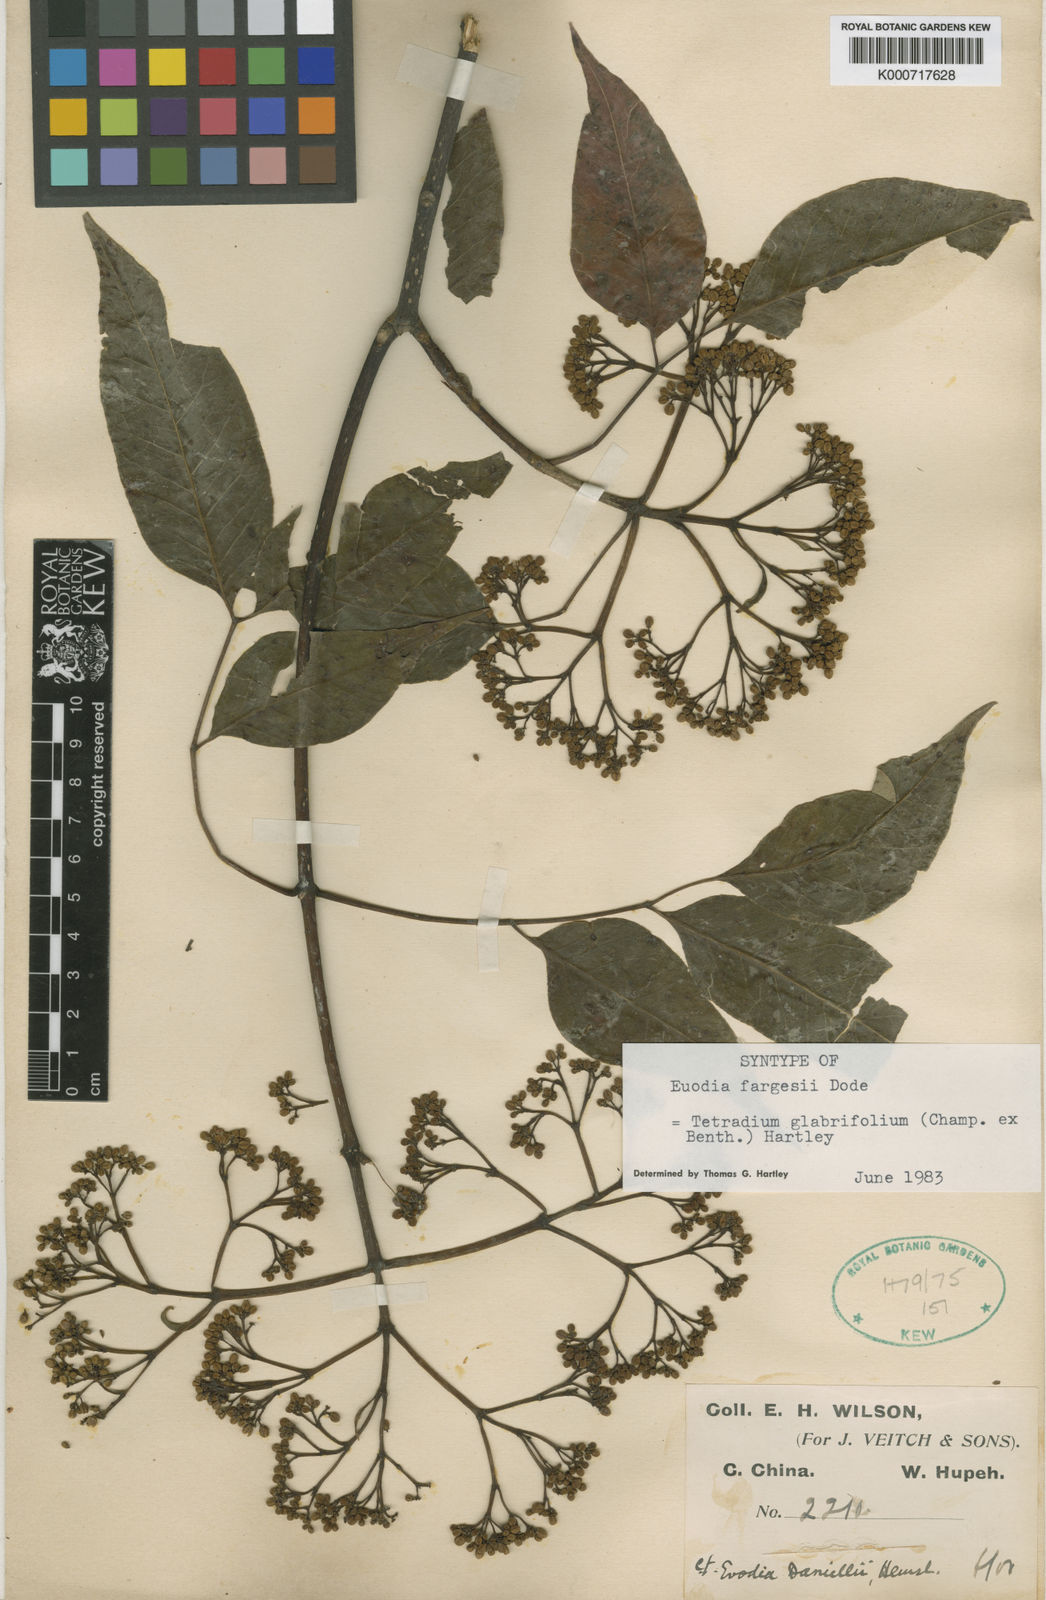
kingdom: Plantae
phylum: Tracheophyta
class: Magnoliopsida
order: Sapindales
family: Rutaceae
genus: Tetradium
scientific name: Tetradium glabrifolium
